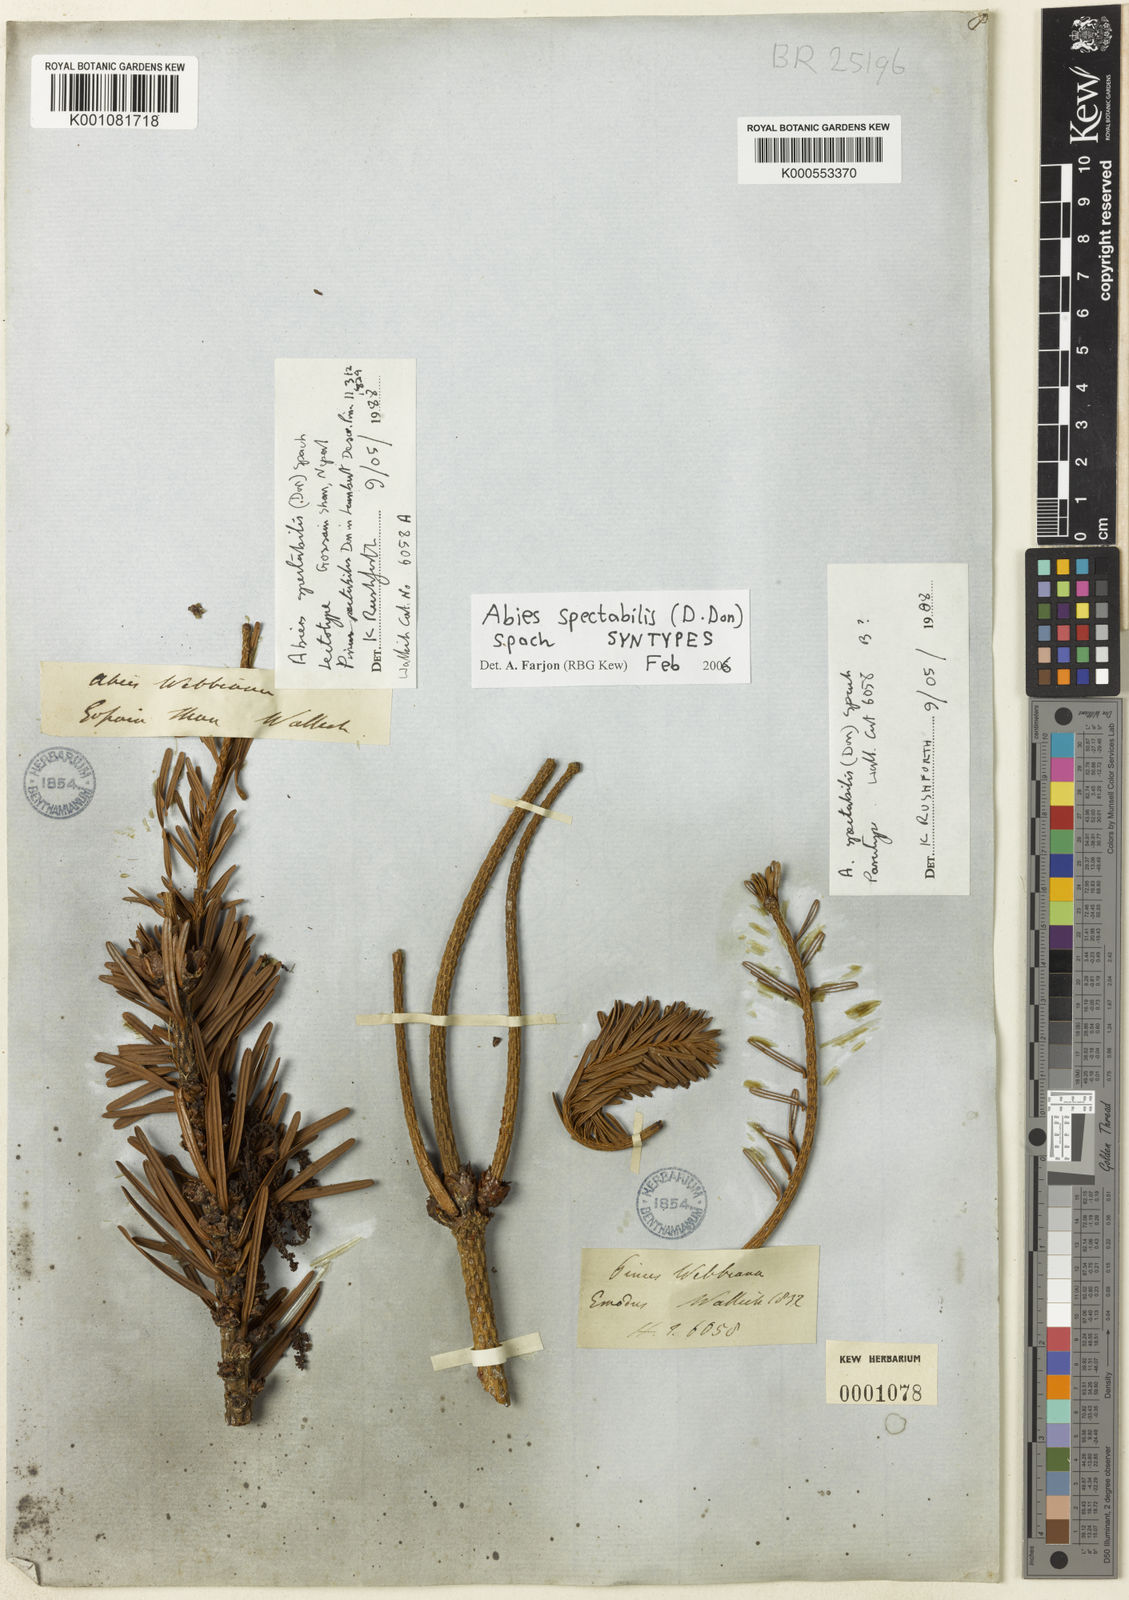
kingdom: Plantae
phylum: Tracheophyta
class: Pinopsida
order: Pinales
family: Pinaceae
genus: Abies
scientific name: Abies spectabilis
